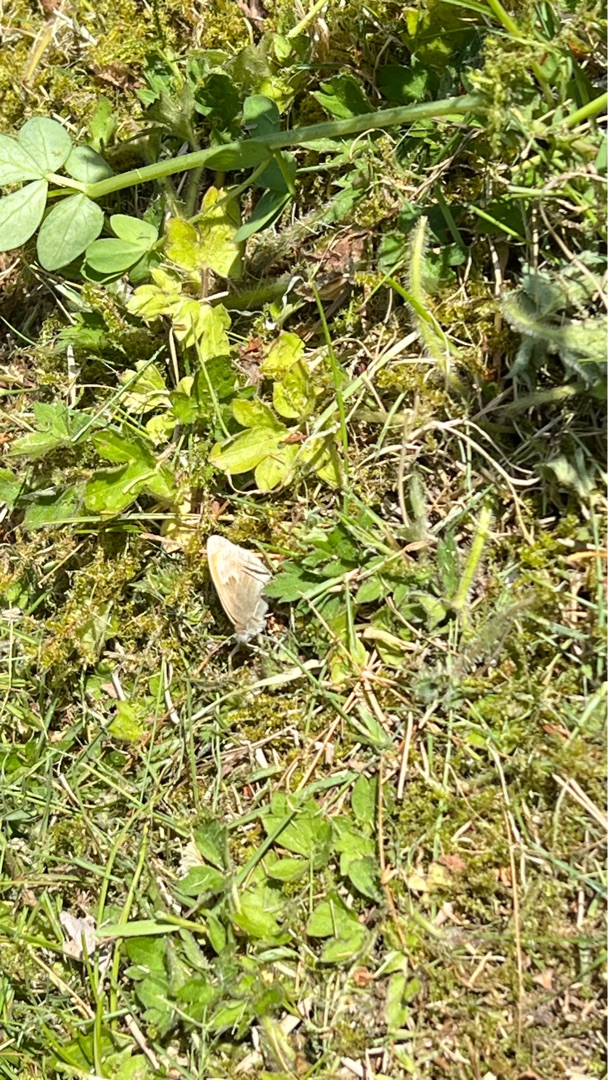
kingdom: Animalia
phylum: Arthropoda
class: Insecta
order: Lepidoptera
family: Nymphalidae
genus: Coenonympha
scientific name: Coenonympha pamphilus
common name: Okkergul randøje
